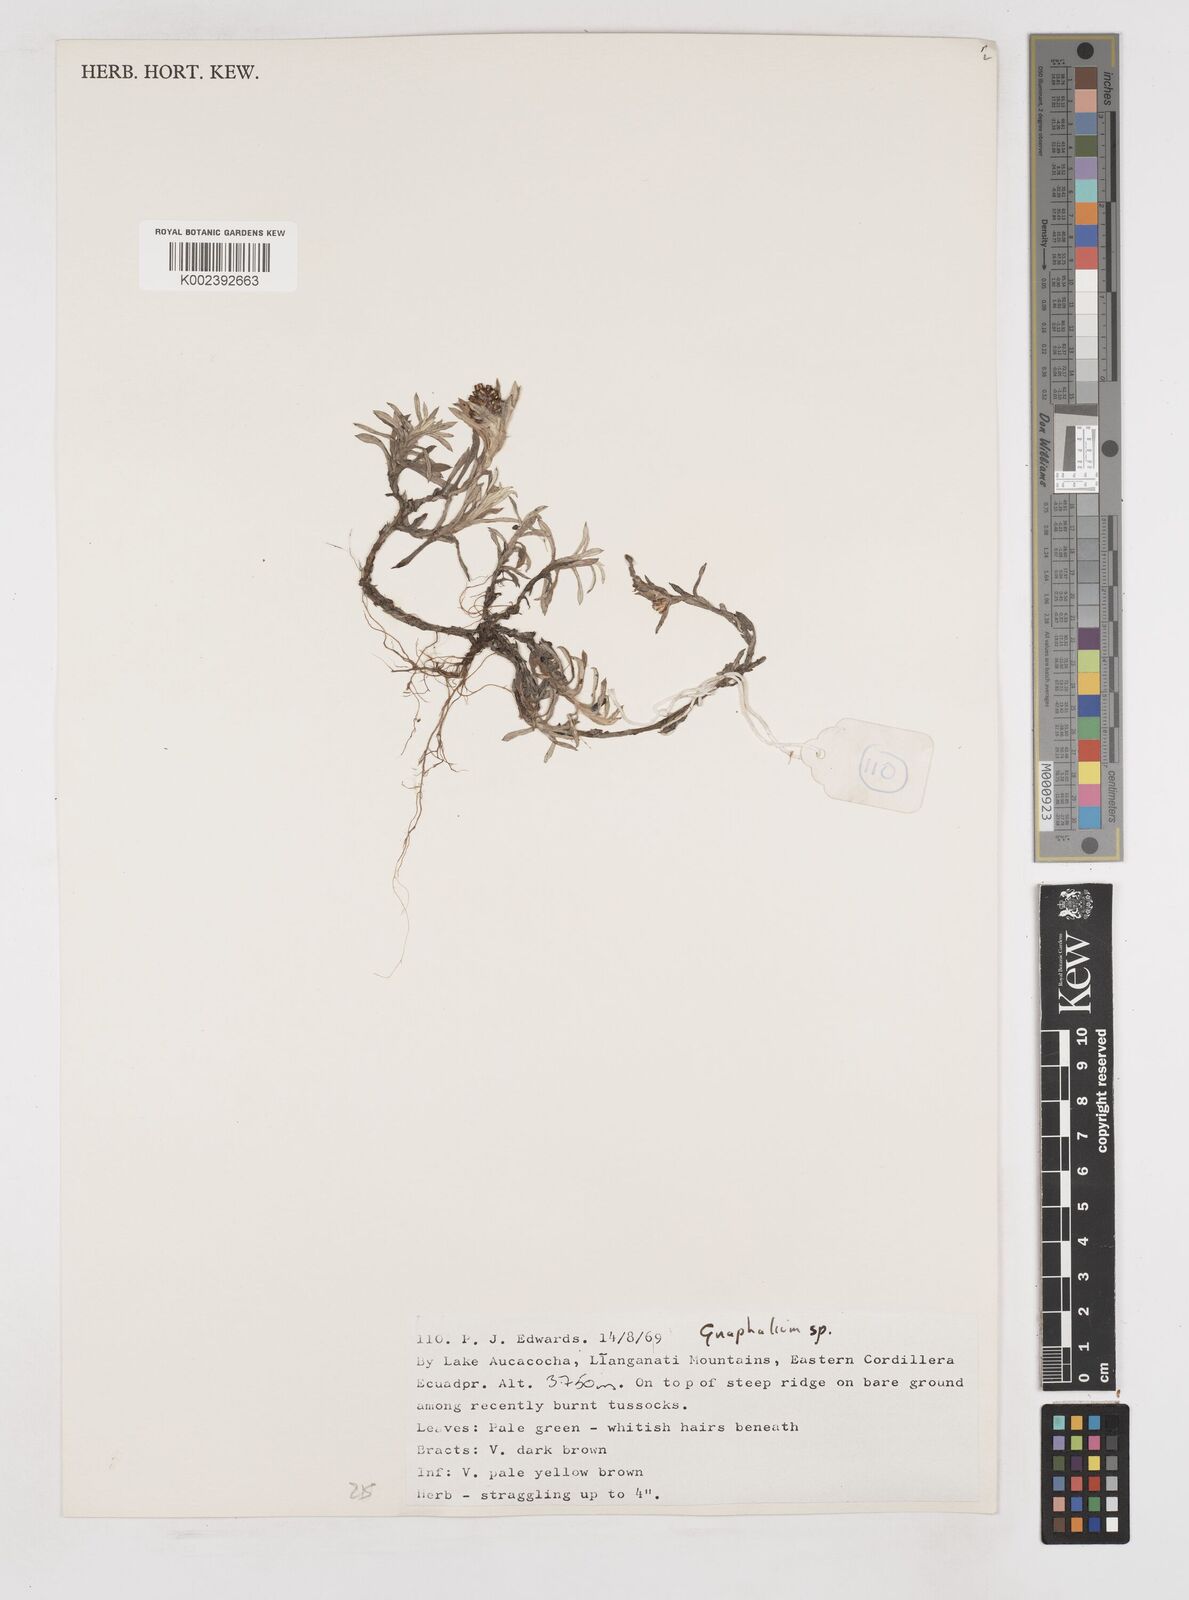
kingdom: Plantae
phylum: Tracheophyta
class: Magnoliopsida
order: Asterales
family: Asteraceae
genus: Gnaphalium
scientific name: Gnaphalium
